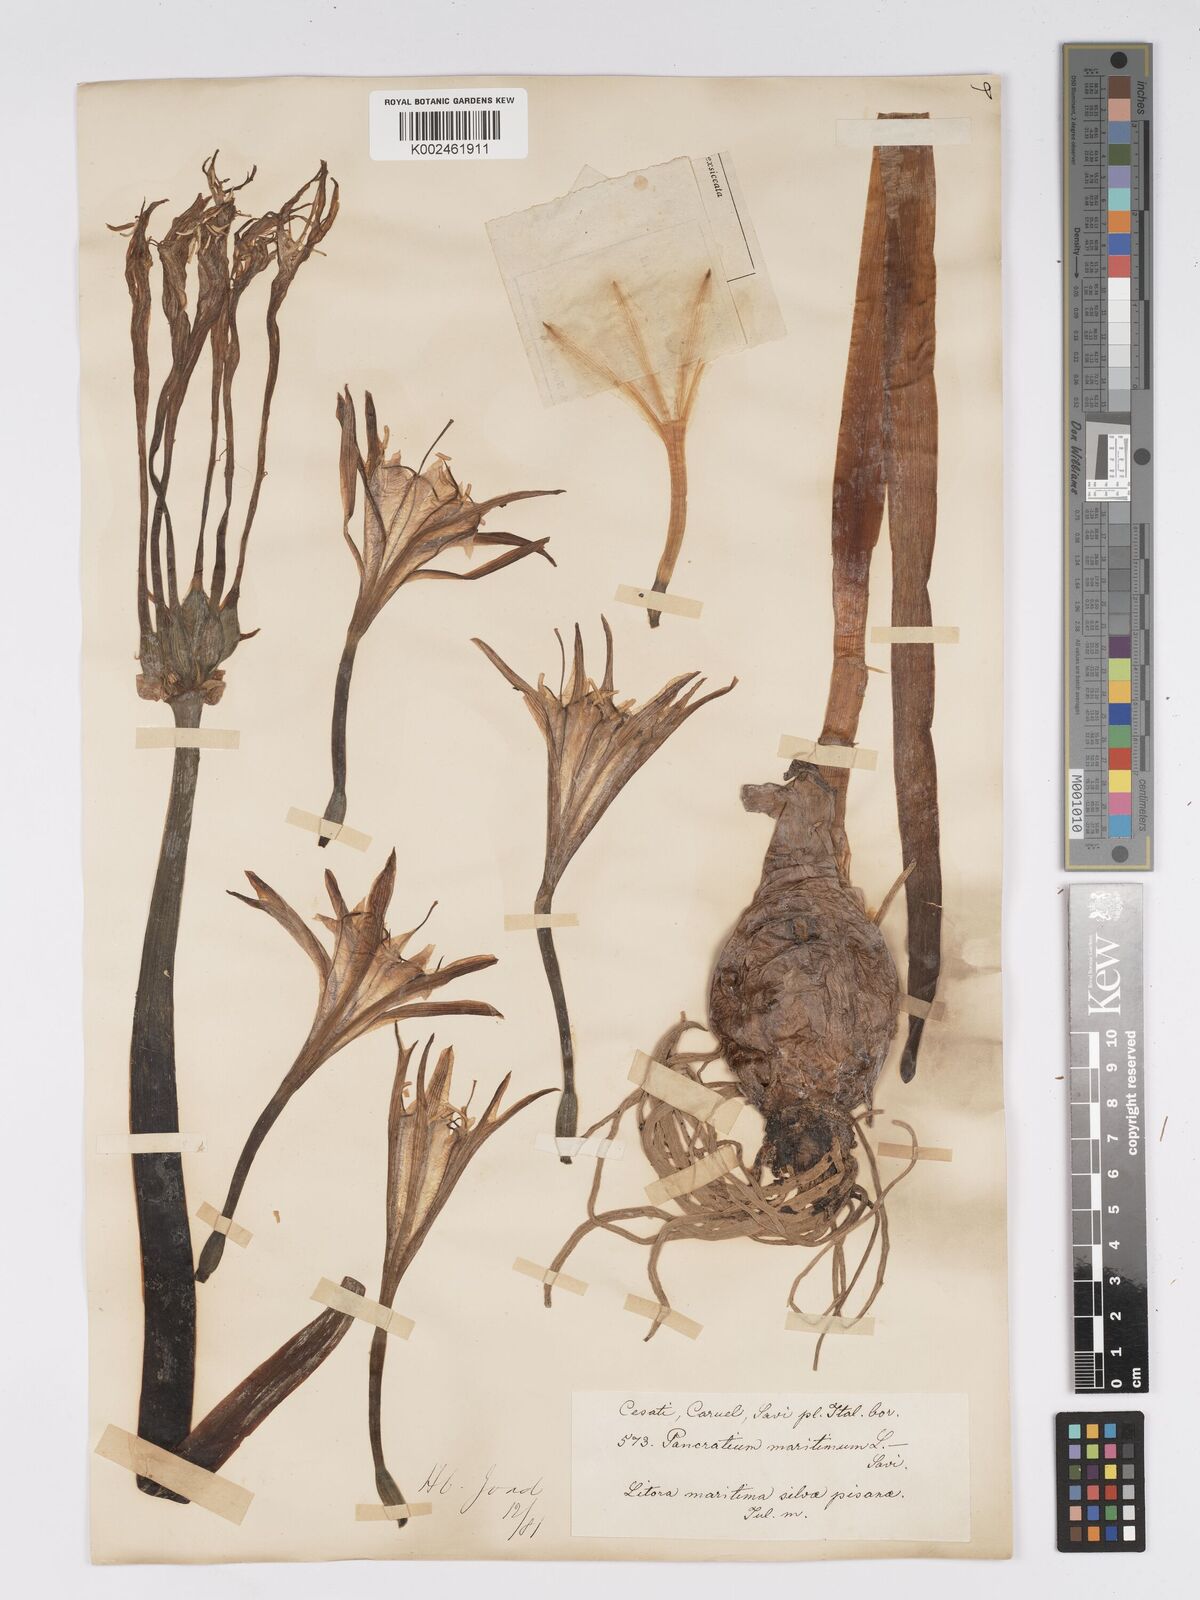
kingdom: Plantae
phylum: Tracheophyta
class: Liliopsida
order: Asparagales
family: Amaryllidaceae
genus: Pancratium
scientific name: Pancratium maritimum
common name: Sea-daffodil
